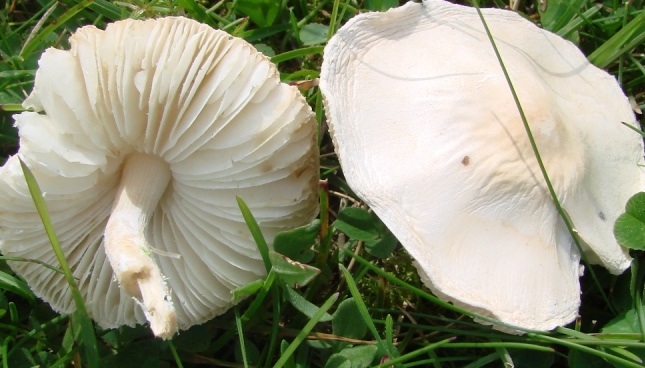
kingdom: Fungi
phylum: Basidiomycota
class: Agaricomycetes
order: Agaricales
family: Agaricaceae
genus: Lepiota
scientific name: Lepiota erminea
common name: hvid parasolhat
